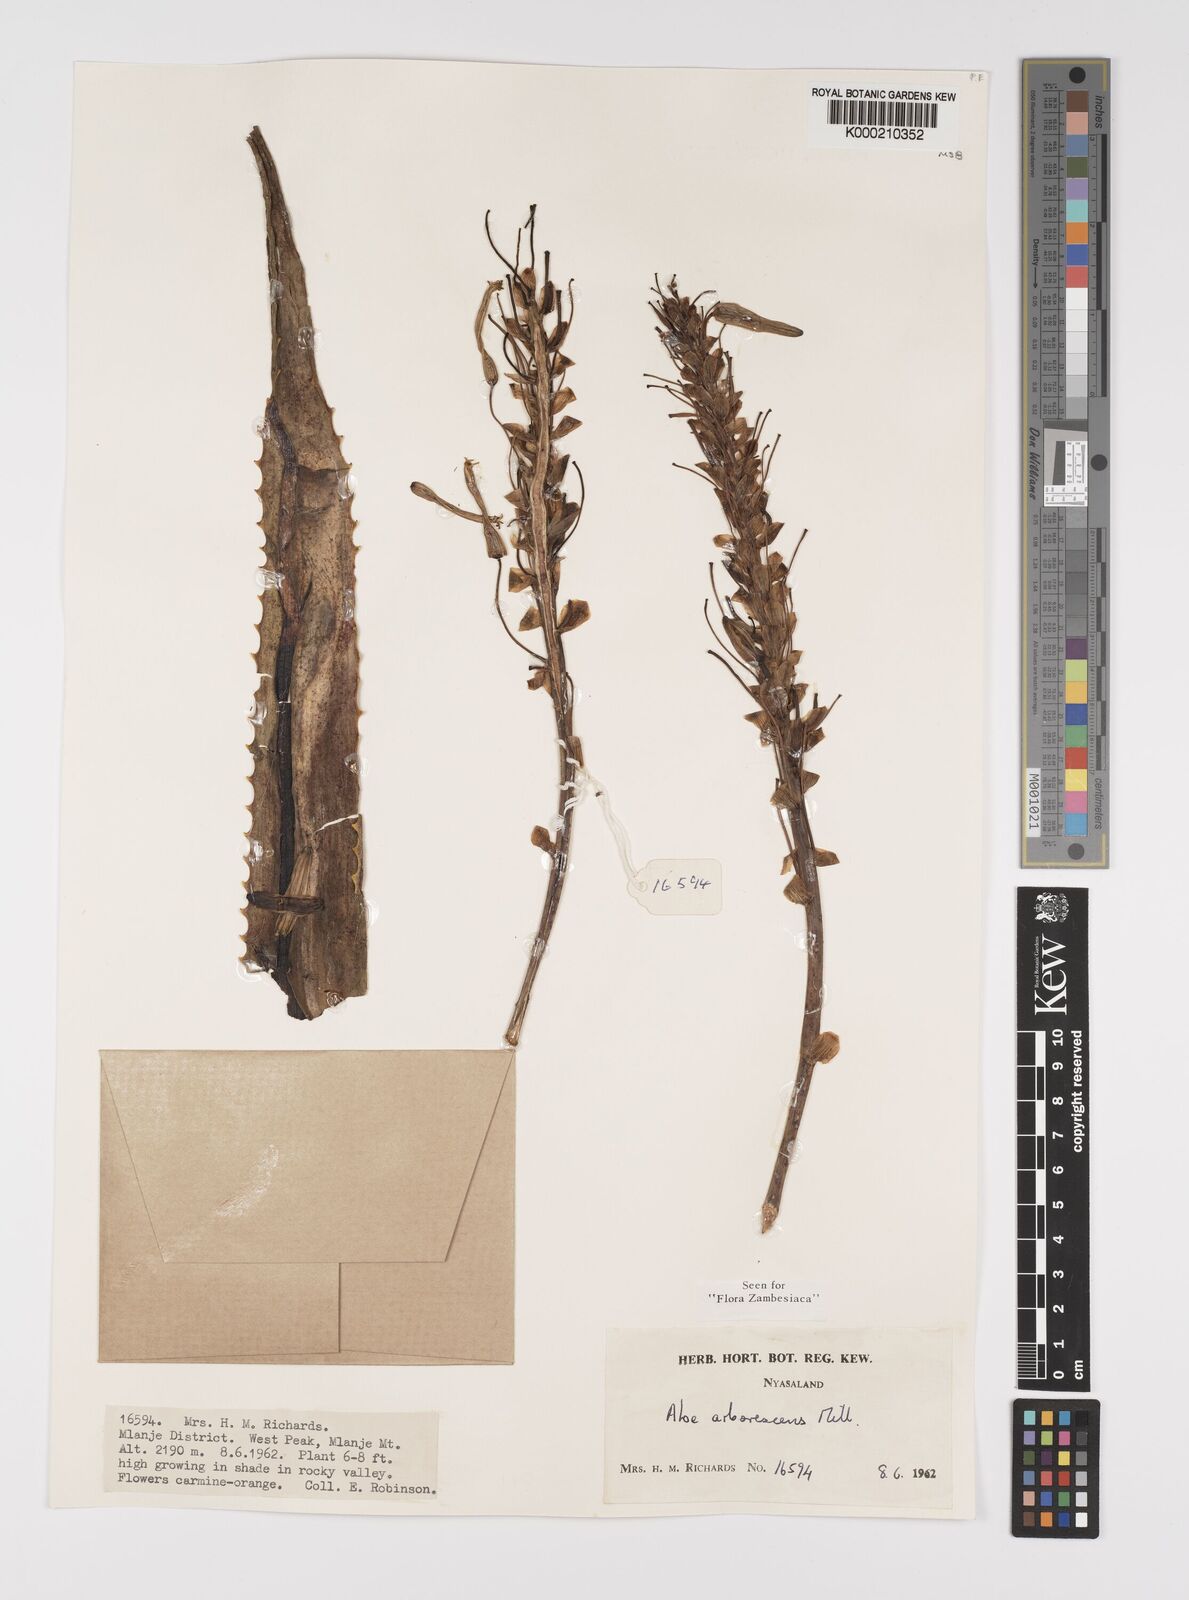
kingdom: Plantae
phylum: Tracheophyta
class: Liliopsida
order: Asparagales
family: Asphodelaceae
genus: Aloe
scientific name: Aloe arborescens
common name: Candelabra aloe
